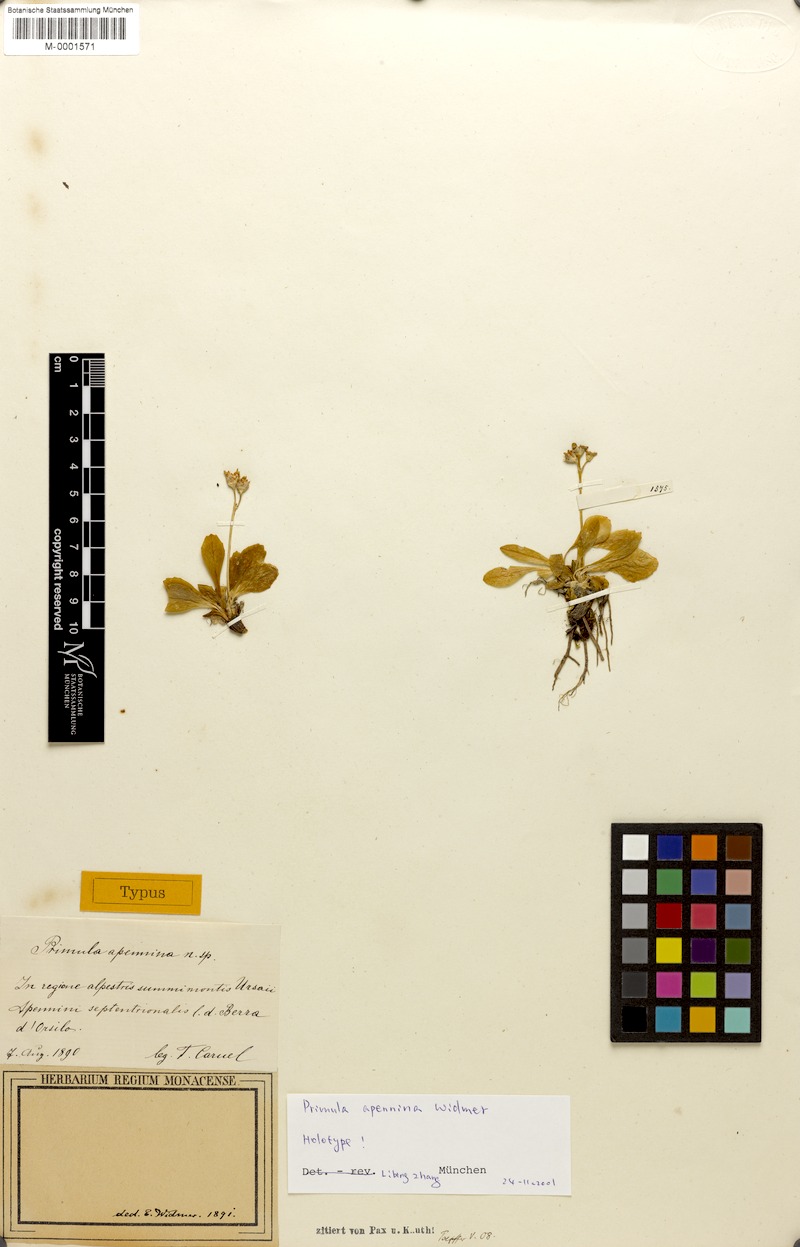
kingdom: Plantae
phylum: Tracheophyta
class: Magnoliopsida
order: Ericales
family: Primulaceae
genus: Primula
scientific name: Primula apennina
